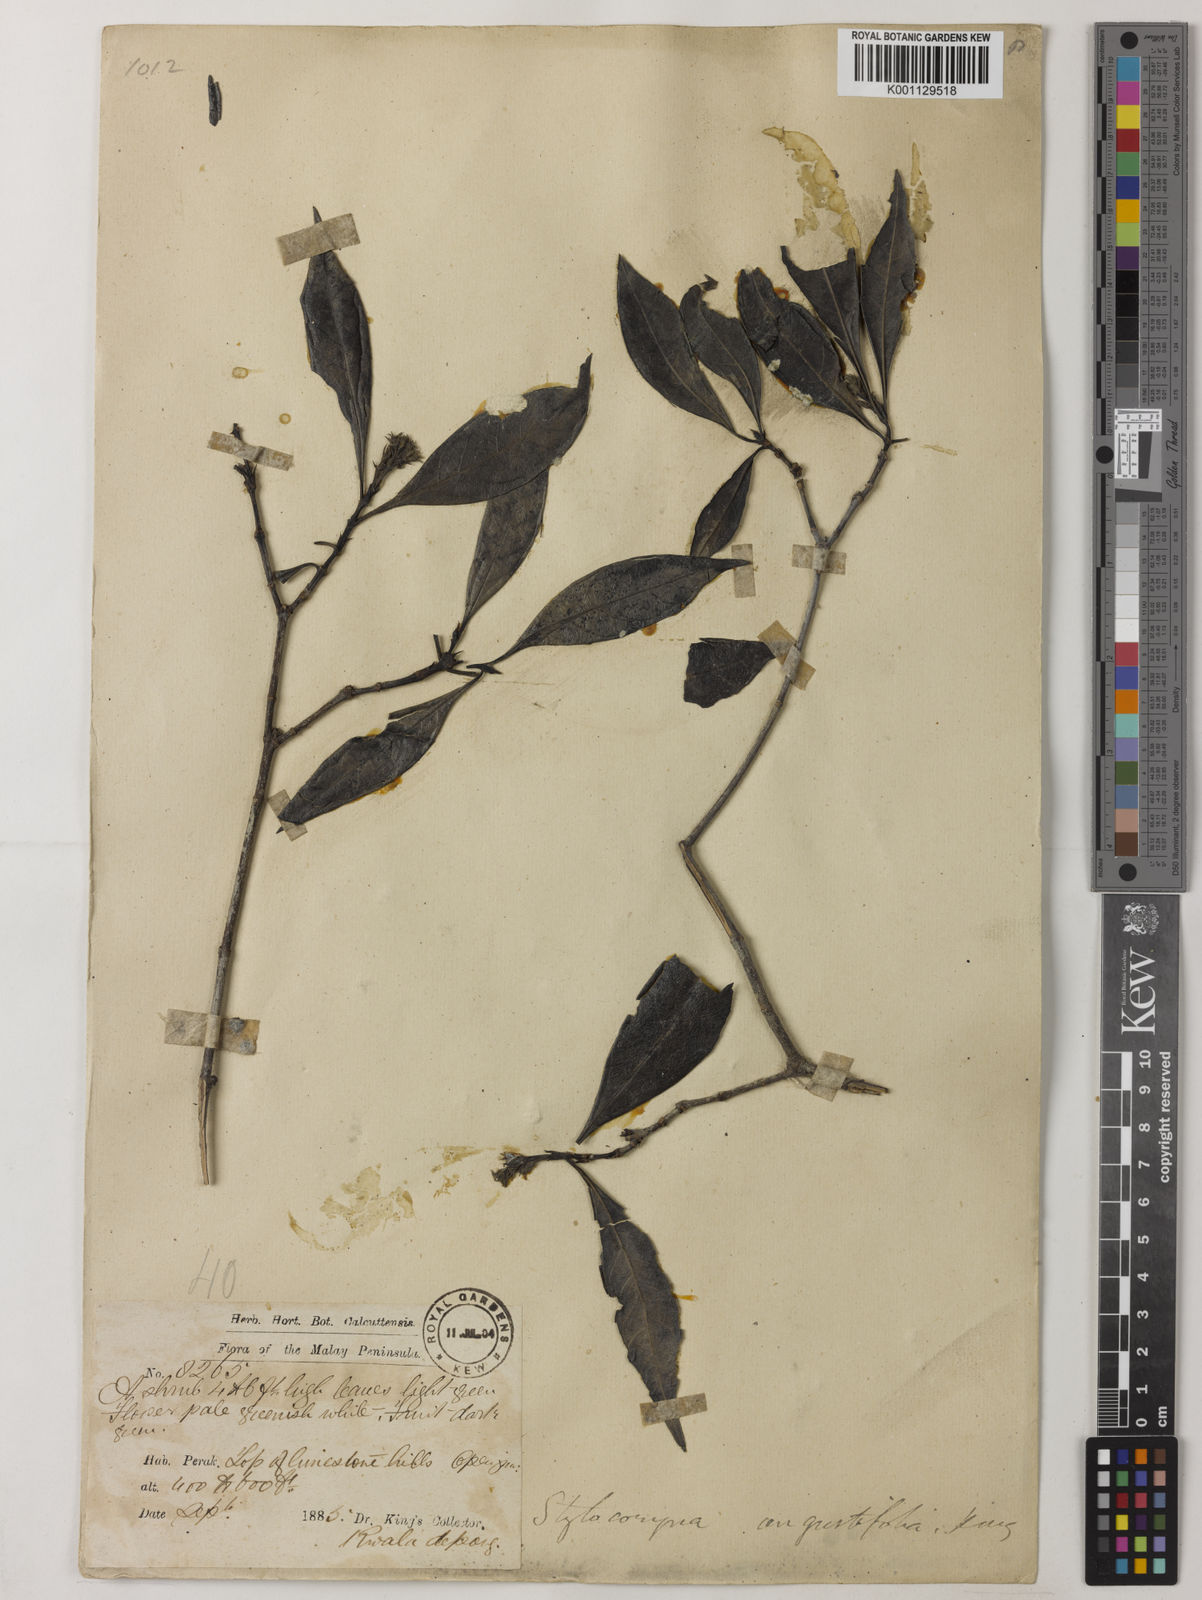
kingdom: Plantae
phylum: Tracheophyta
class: Magnoliopsida
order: Gentianales
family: Rubiaceae
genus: Tarenna
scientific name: Tarenna angustifolia
